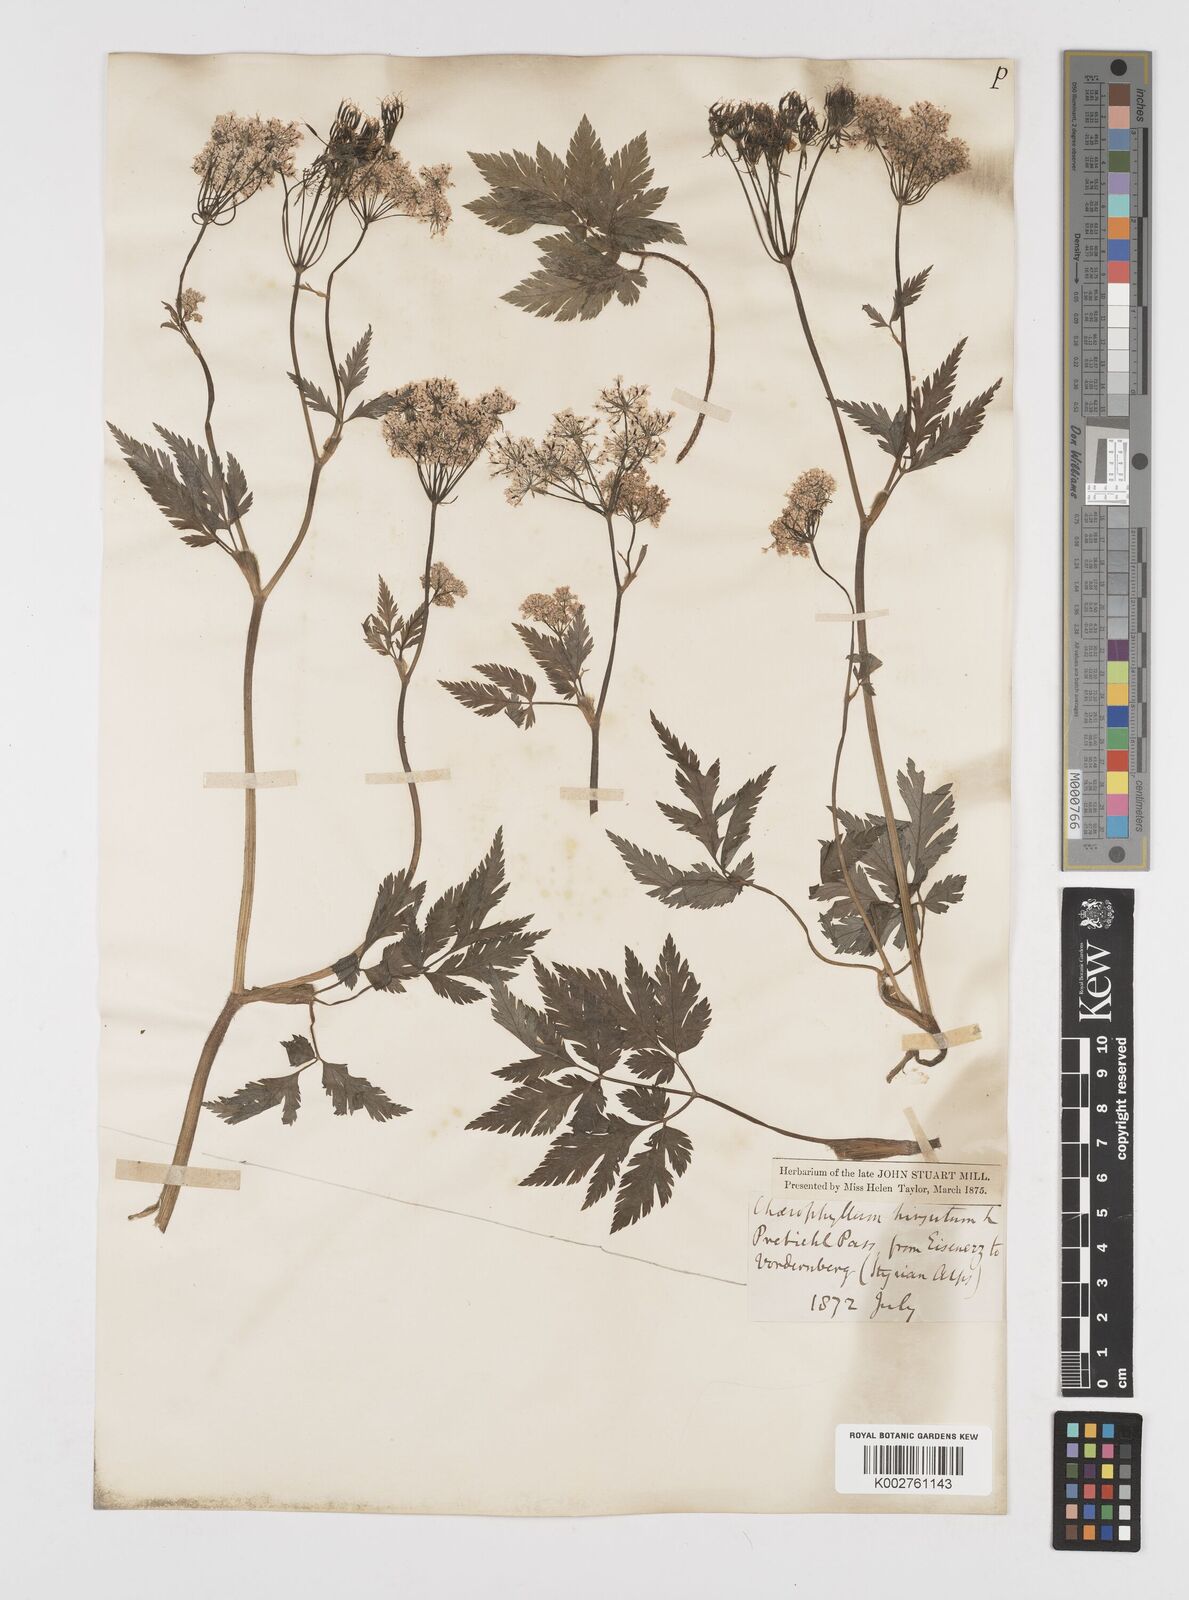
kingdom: Plantae
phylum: Tracheophyta
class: Magnoliopsida
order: Apiales
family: Apiaceae
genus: Chaerophyllum
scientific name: Chaerophyllum hirsutum
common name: Hairy chervil
